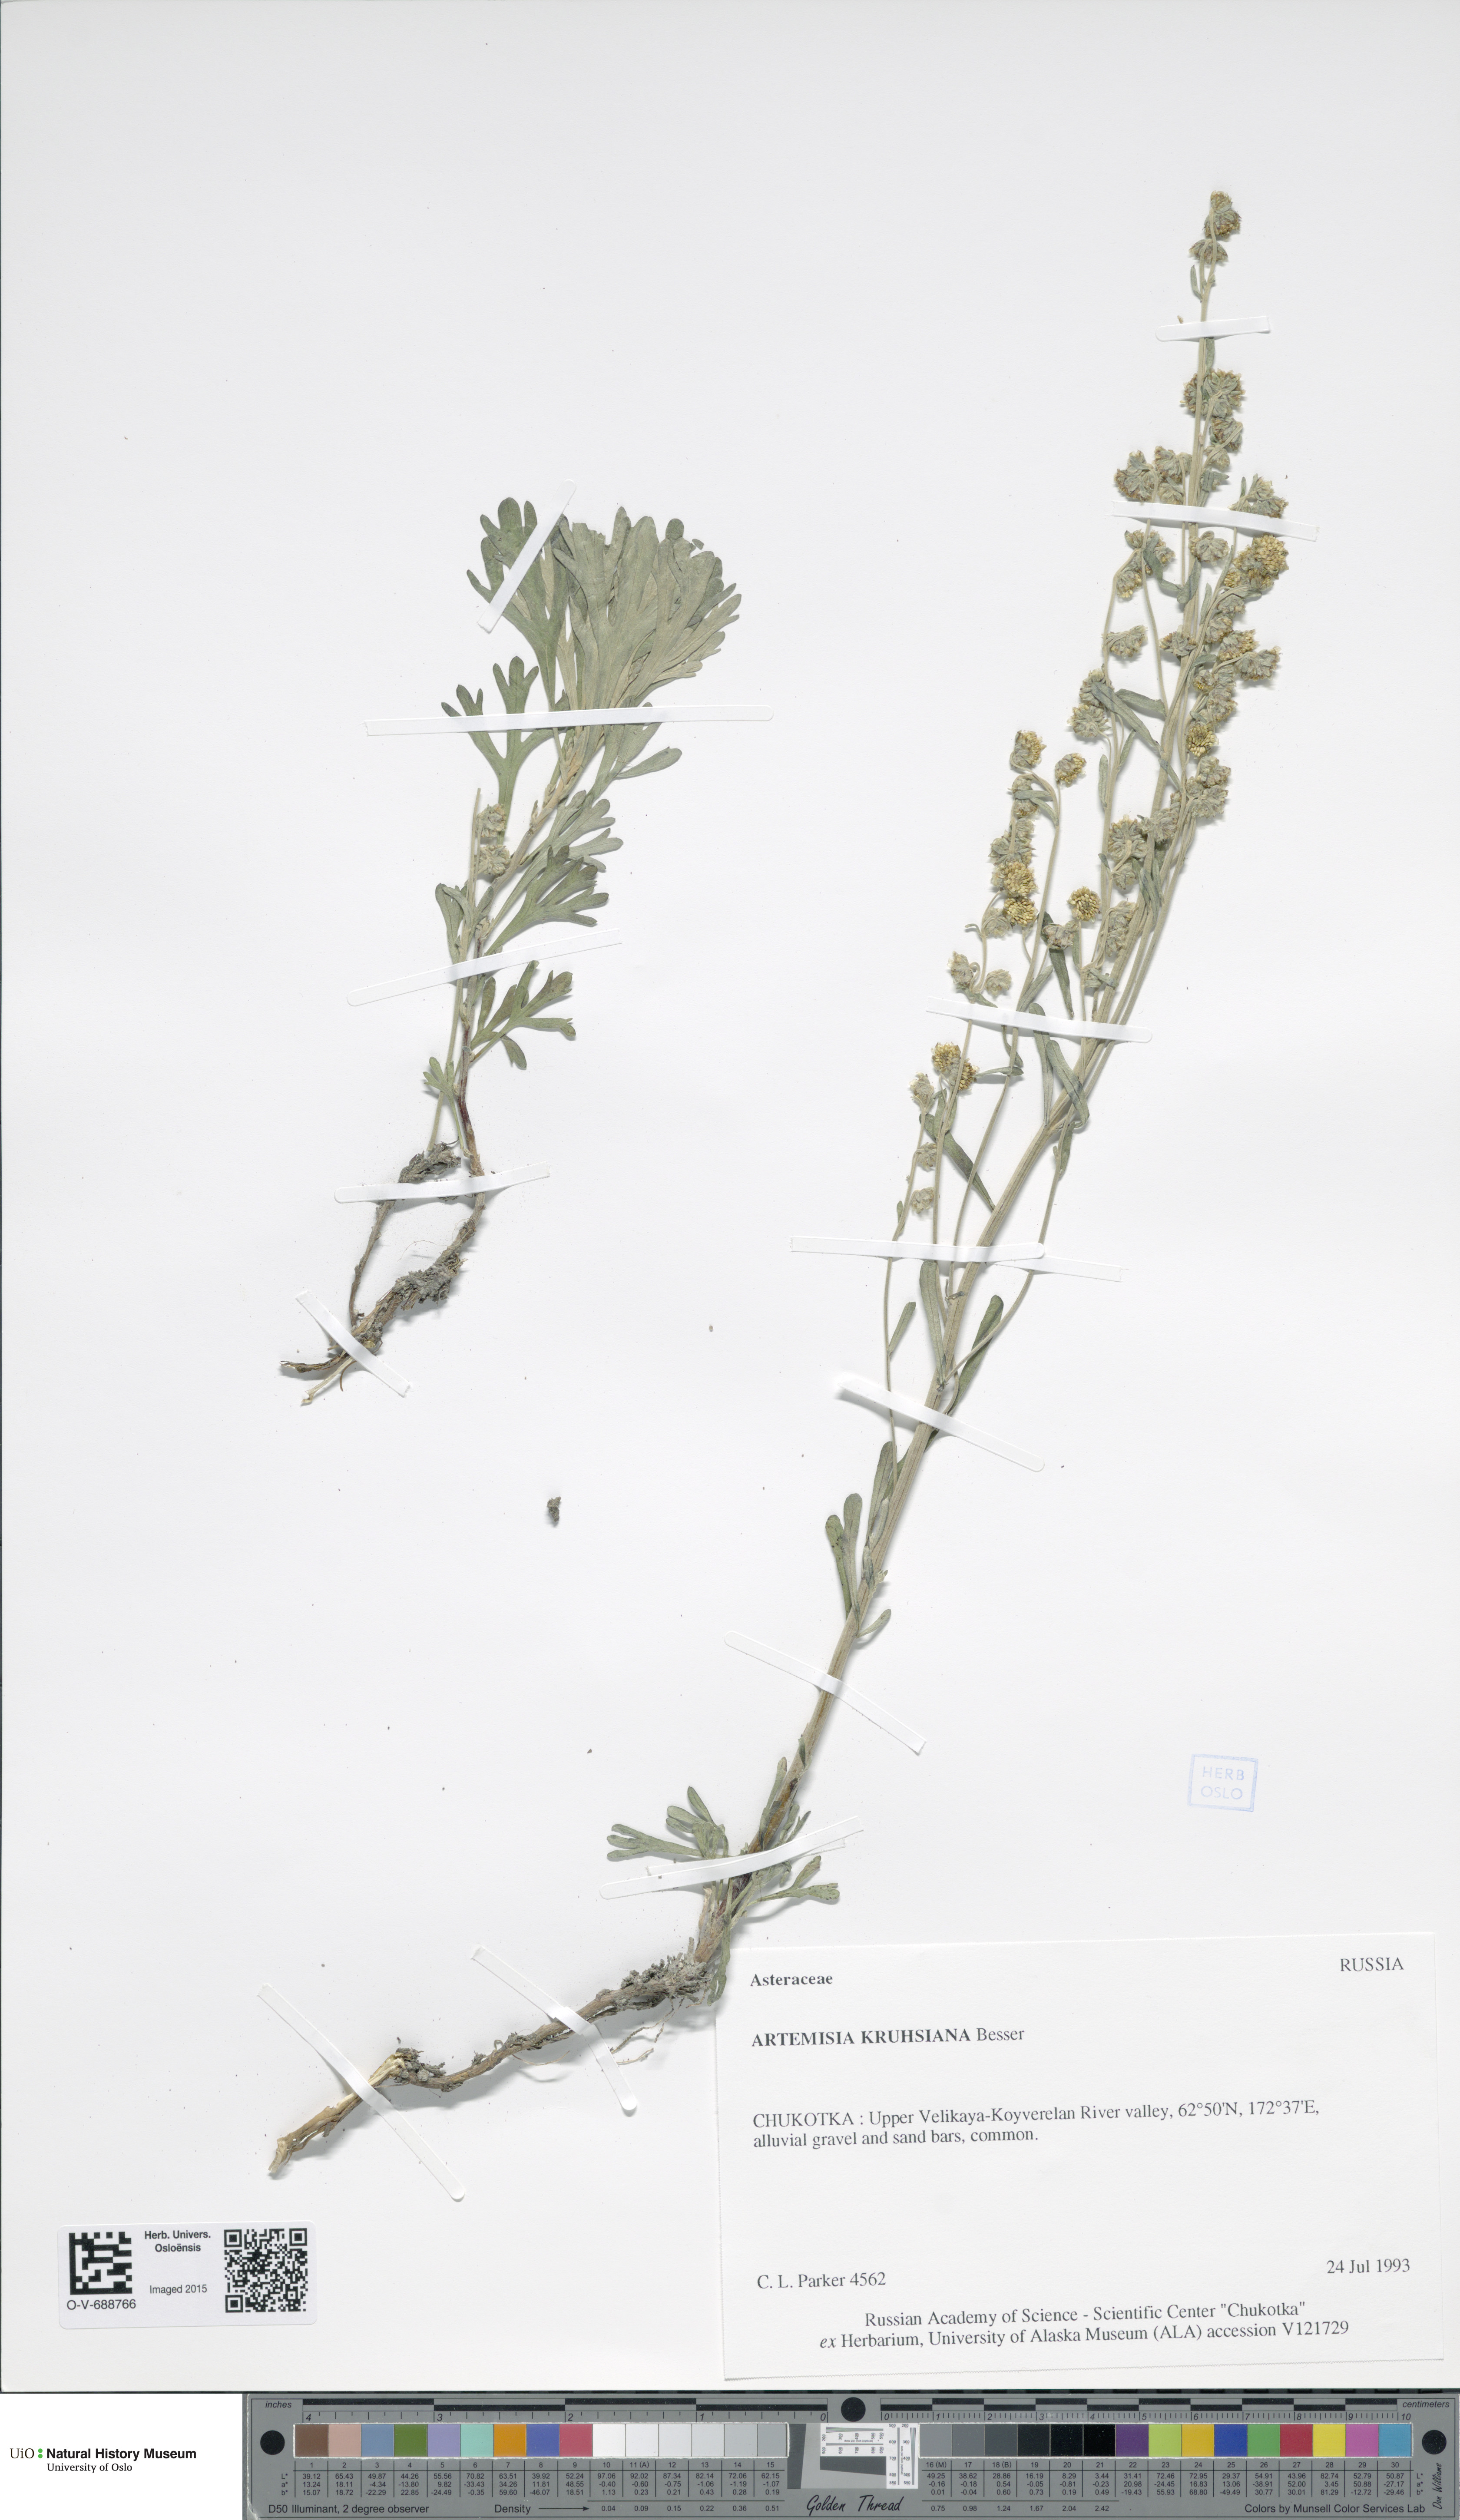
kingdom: Plantae
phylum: Tracheophyta
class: Magnoliopsida
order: Asterales
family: Asteraceae
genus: Artemisia
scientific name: Artemisia kruhsiana
